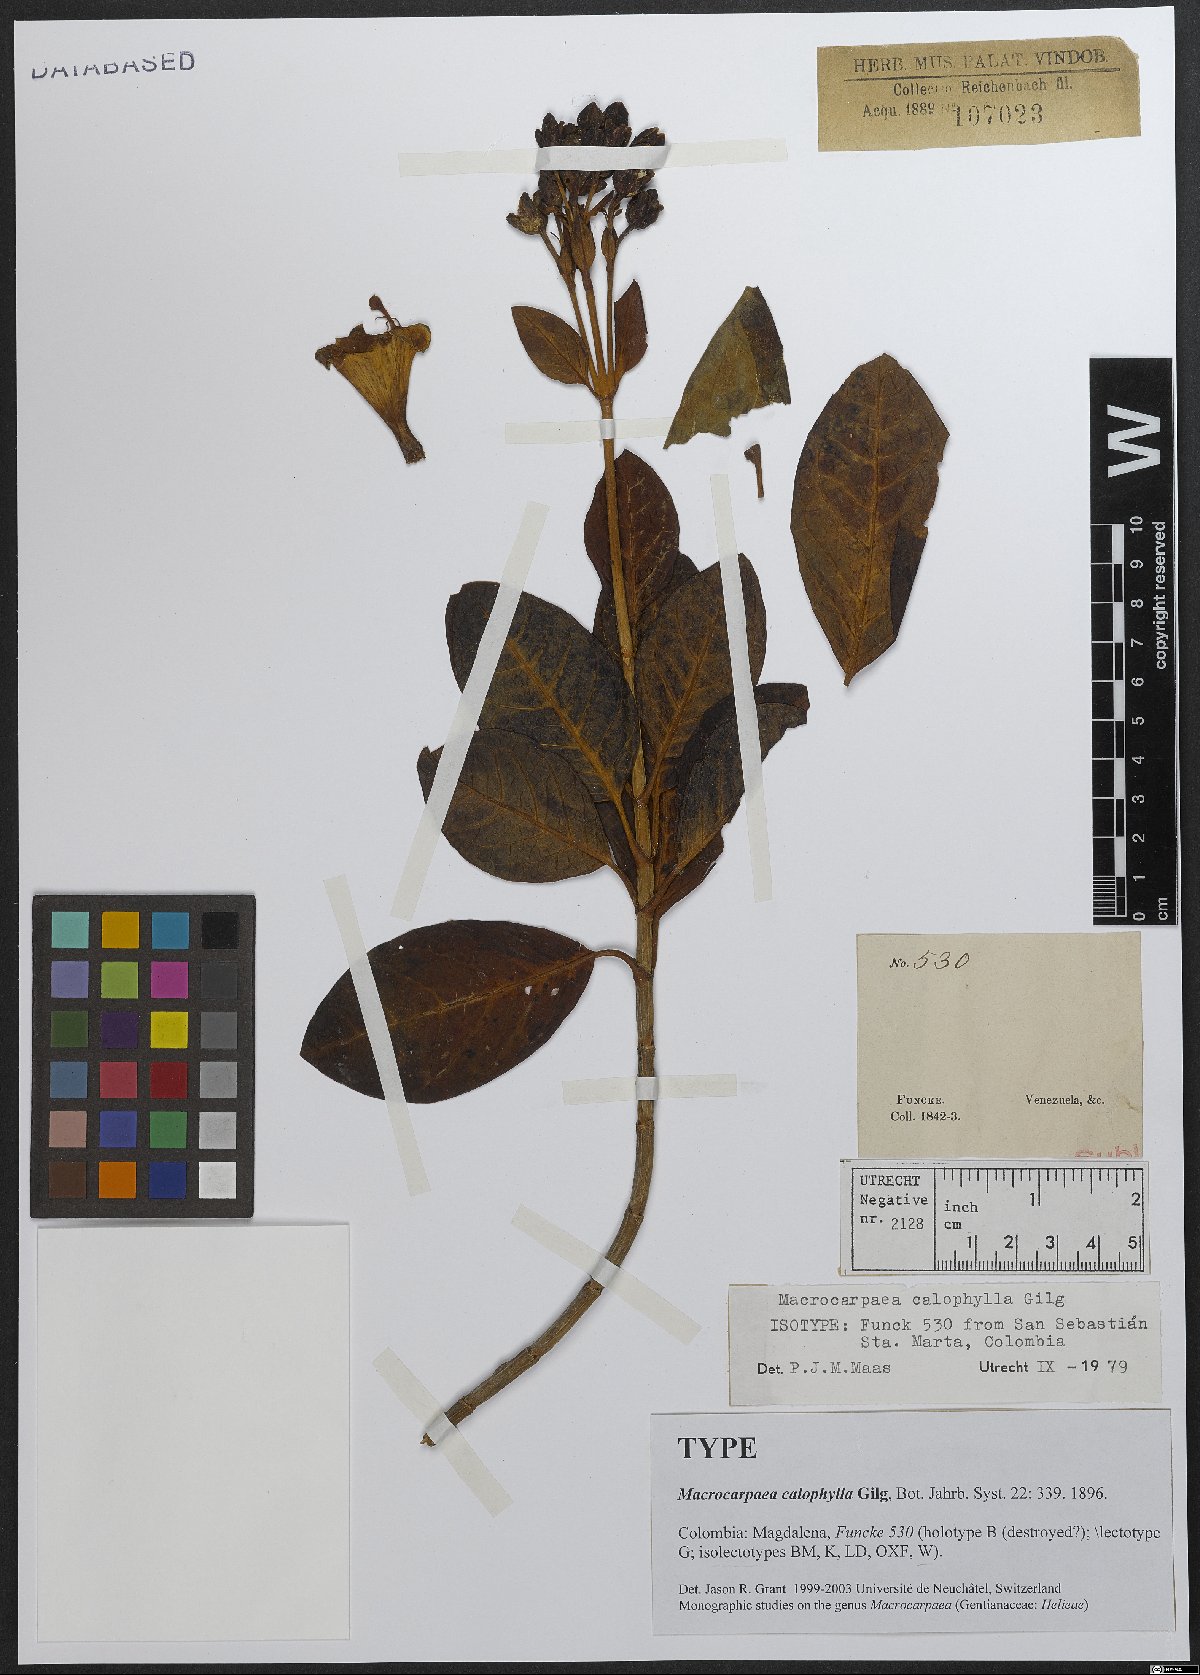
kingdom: Plantae
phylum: Tracheophyta
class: Magnoliopsida
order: Gentianales
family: Gentianaceae
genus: Macrocarpaea
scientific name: Macrocarpaea calophylla
